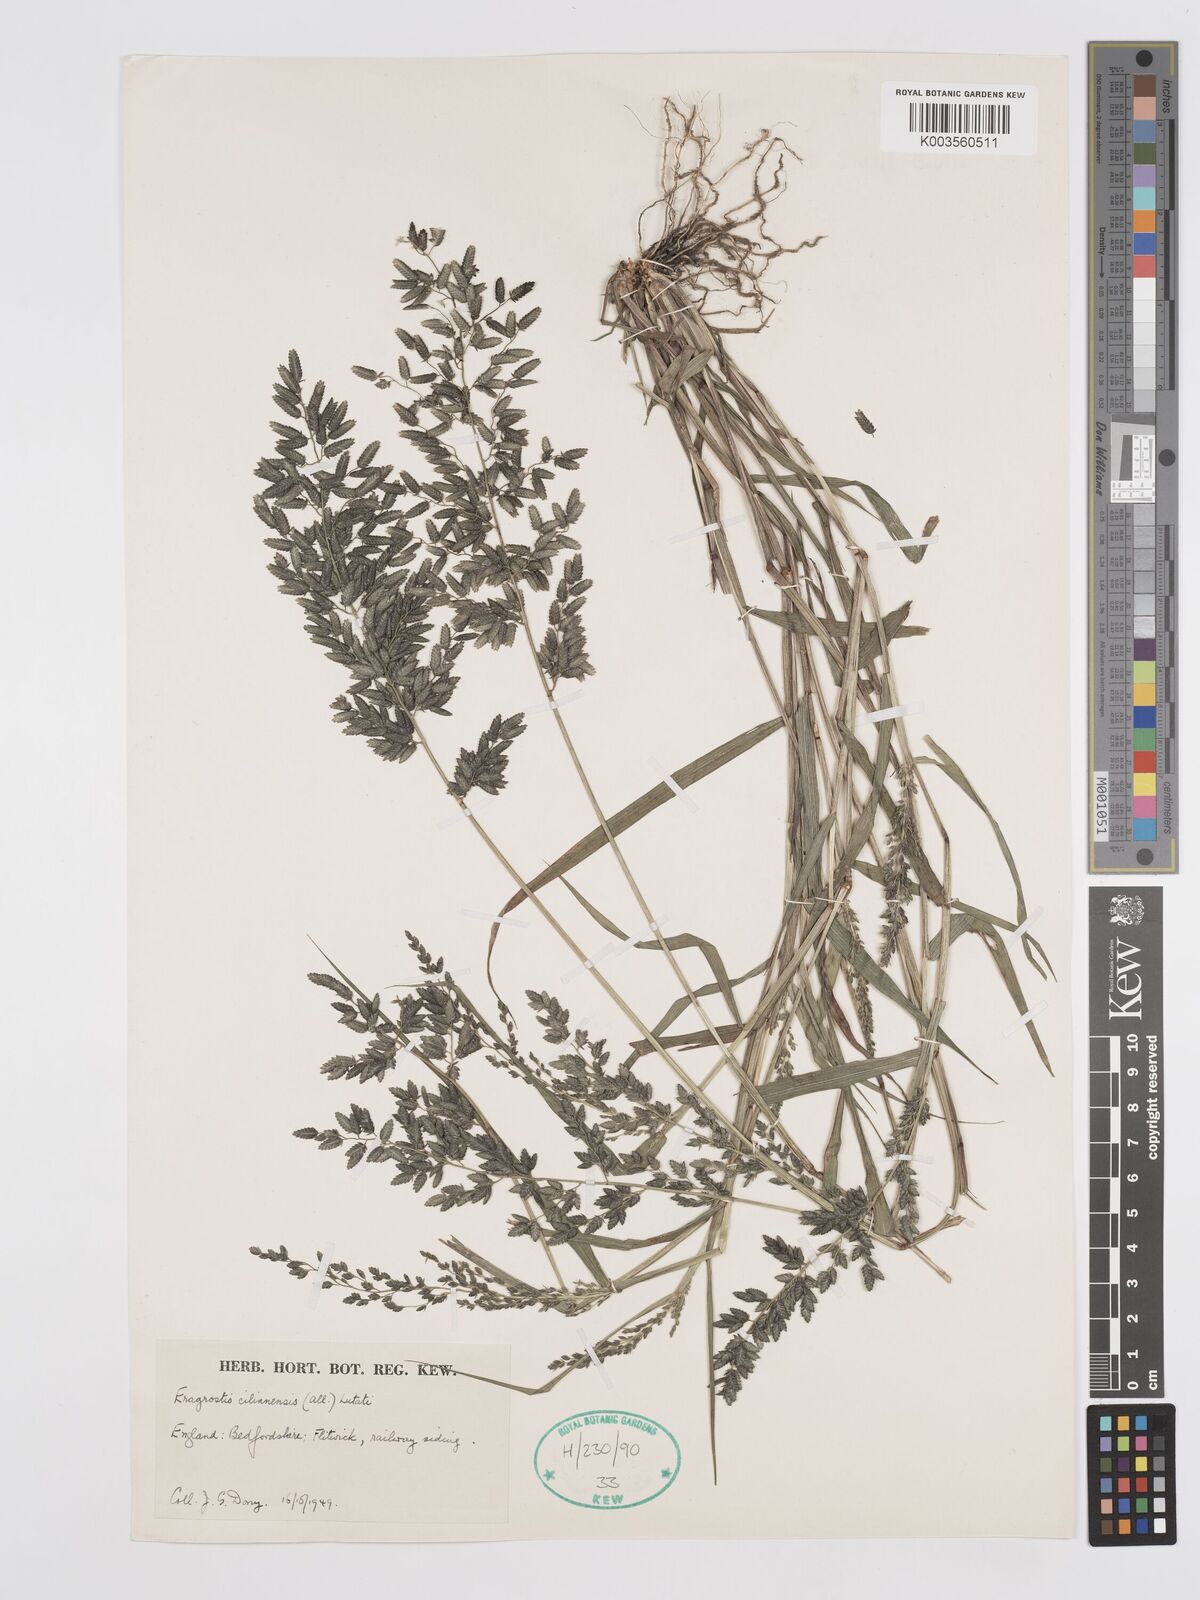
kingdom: Plantae
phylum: Tracheophyta
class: Liliopsida
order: Poales
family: Poaceae
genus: Eragrostis
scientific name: Eragrostis cilianensis
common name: Stinkgrass
